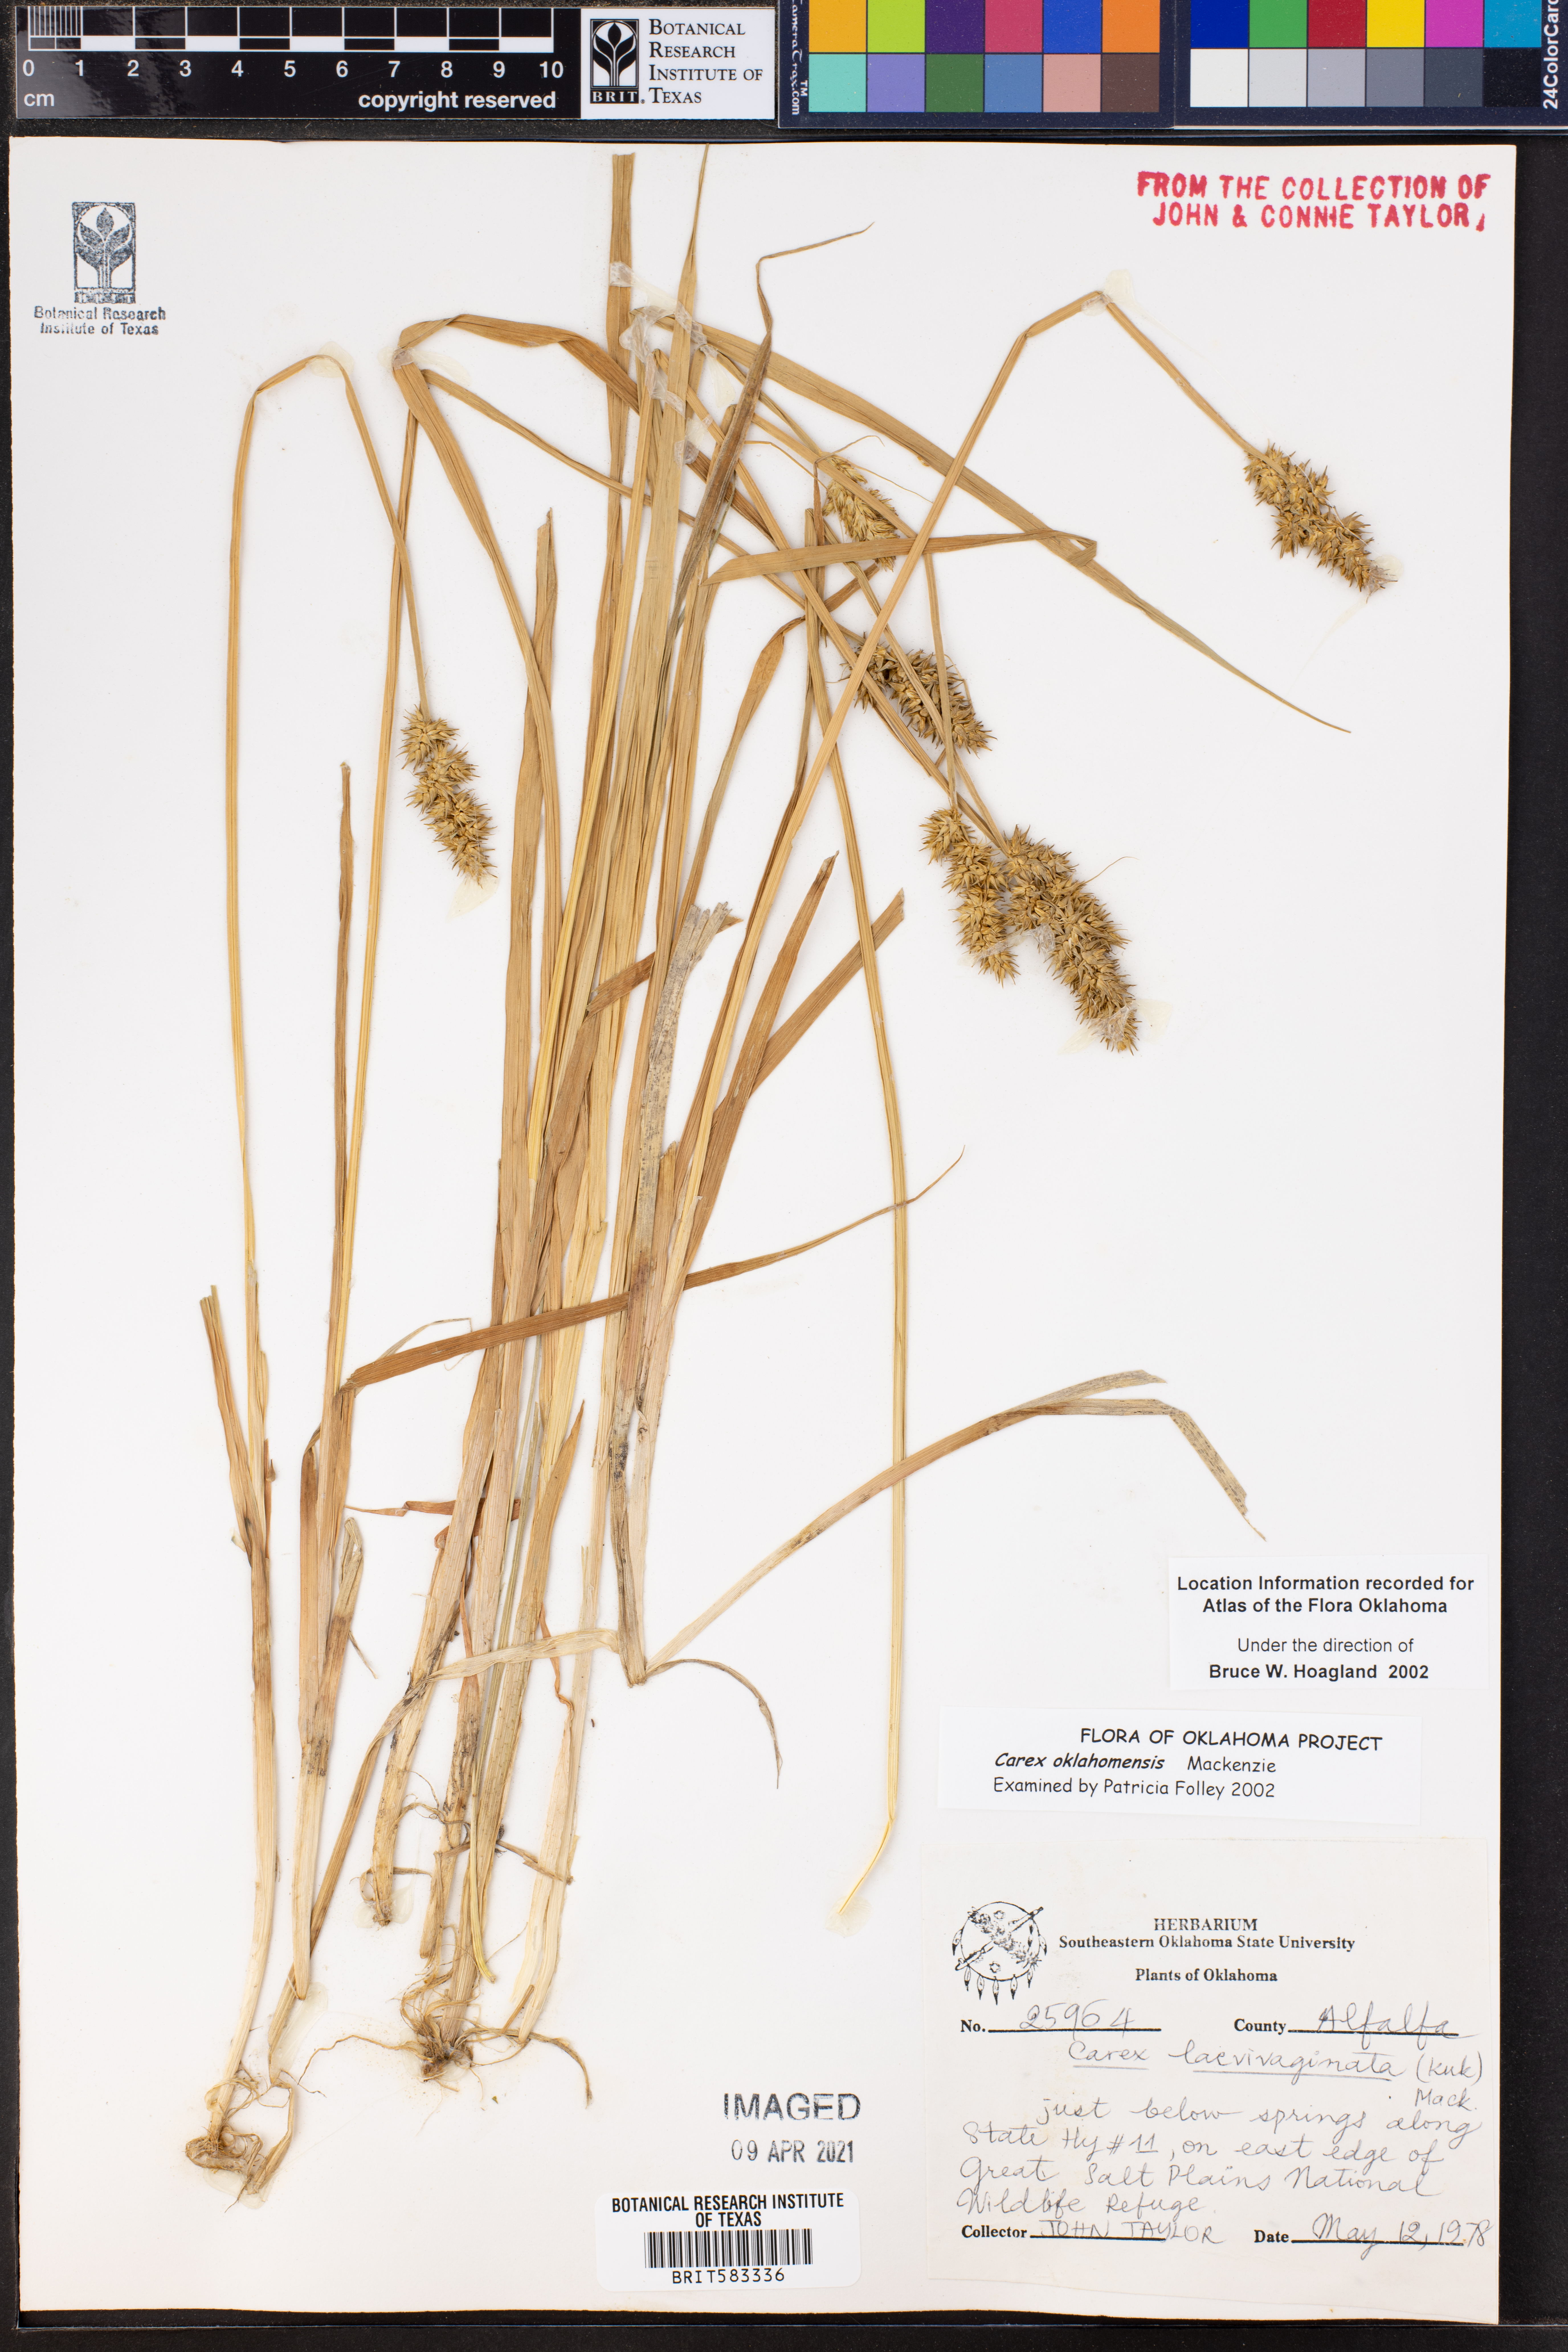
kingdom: Plantae
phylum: Tracheophyta
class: Liliopsida
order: Poales
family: Cyperaceae
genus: Carex
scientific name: Carex oklahomensis
